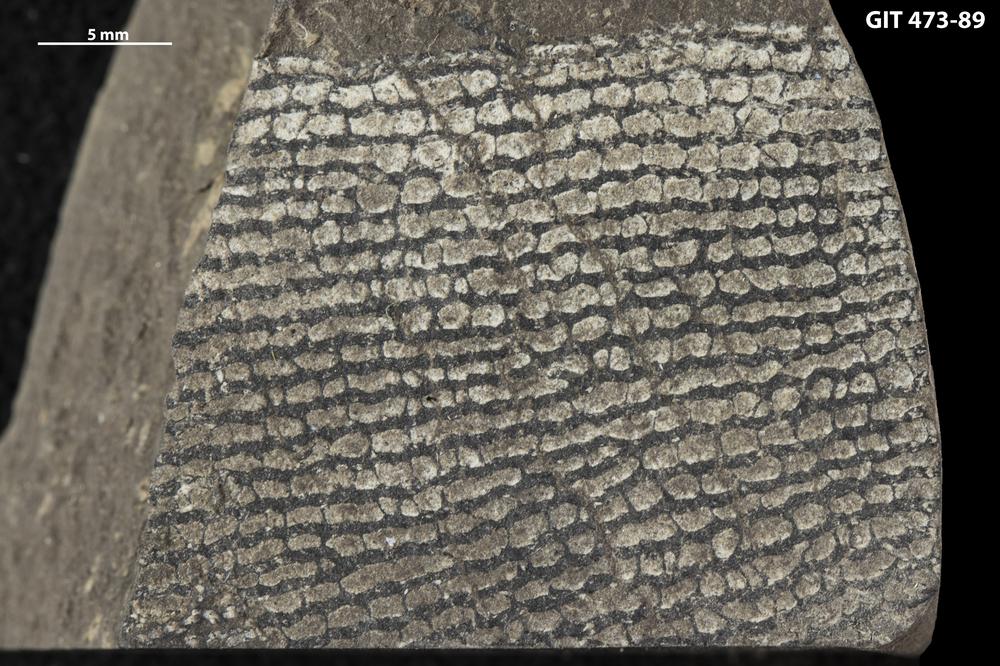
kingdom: Animalia
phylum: Hemichordata
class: Pterobranchia
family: Anisograptidae
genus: Rhabdinopora
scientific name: Rhabdinopora
